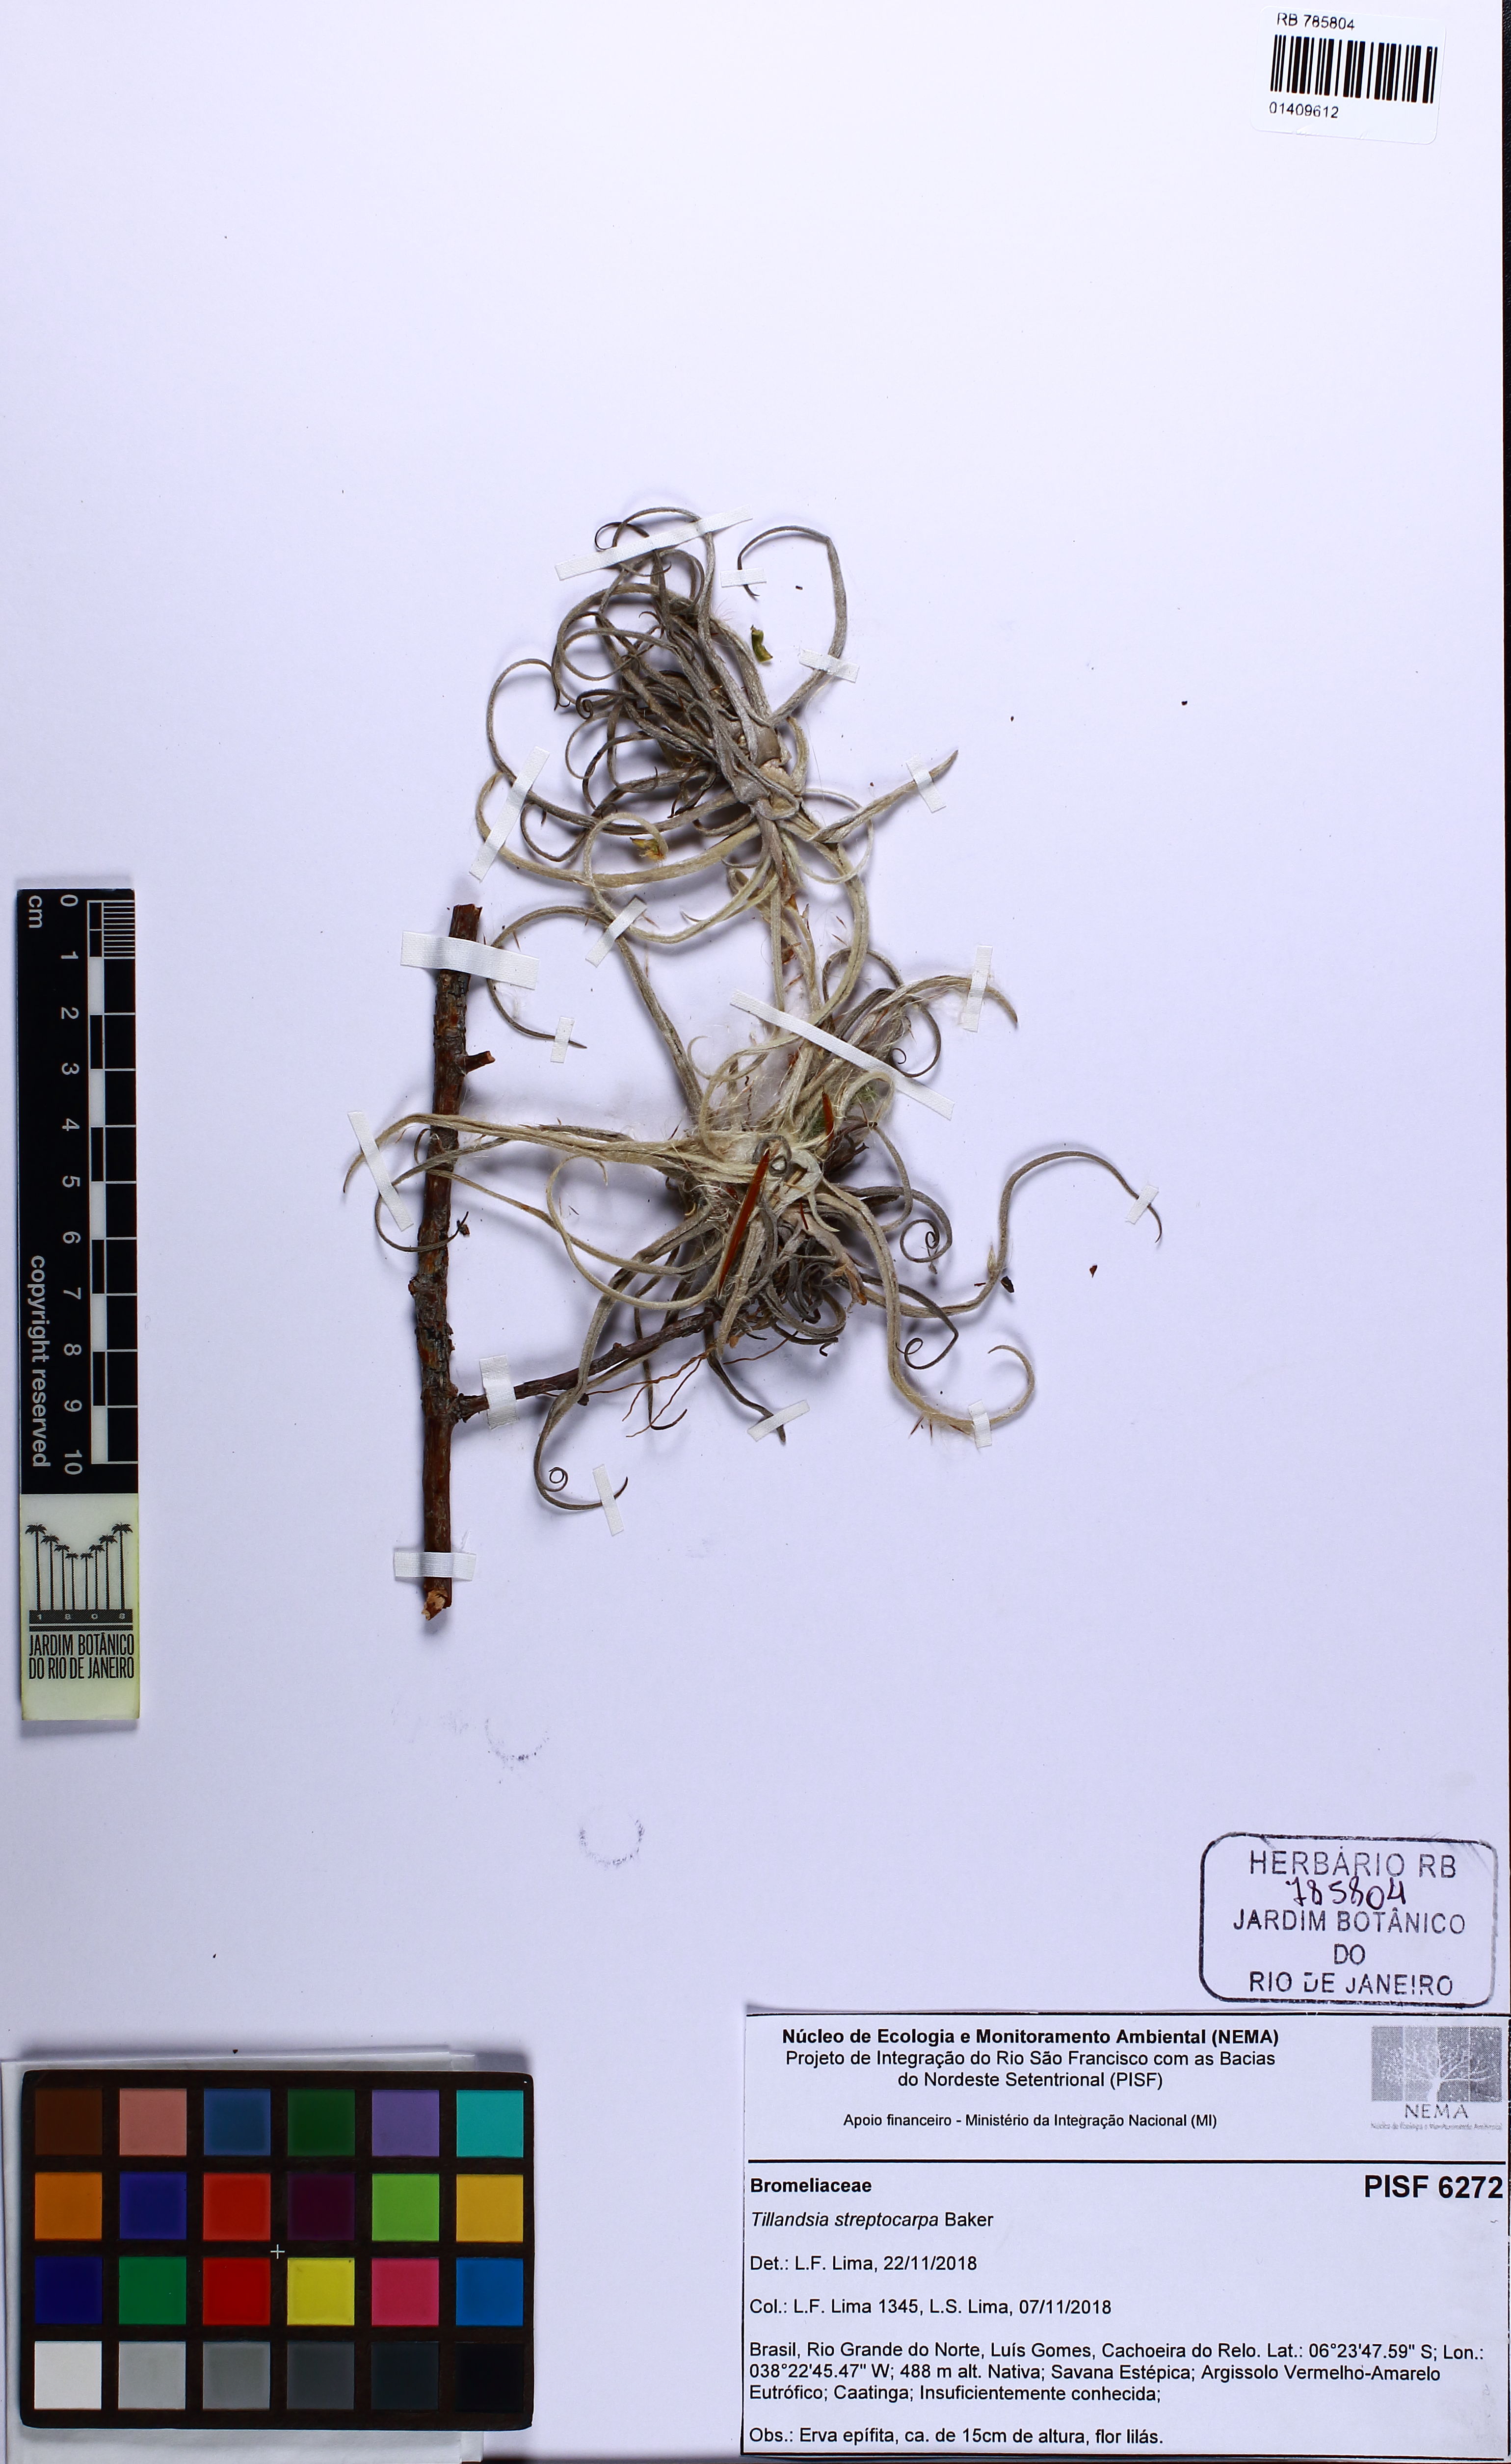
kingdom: Plantae
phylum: Tracheophyta
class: Liliopsida
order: Poales
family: Bromeliaceae
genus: Tillandsia
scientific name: Tillandsia streptocarpa
